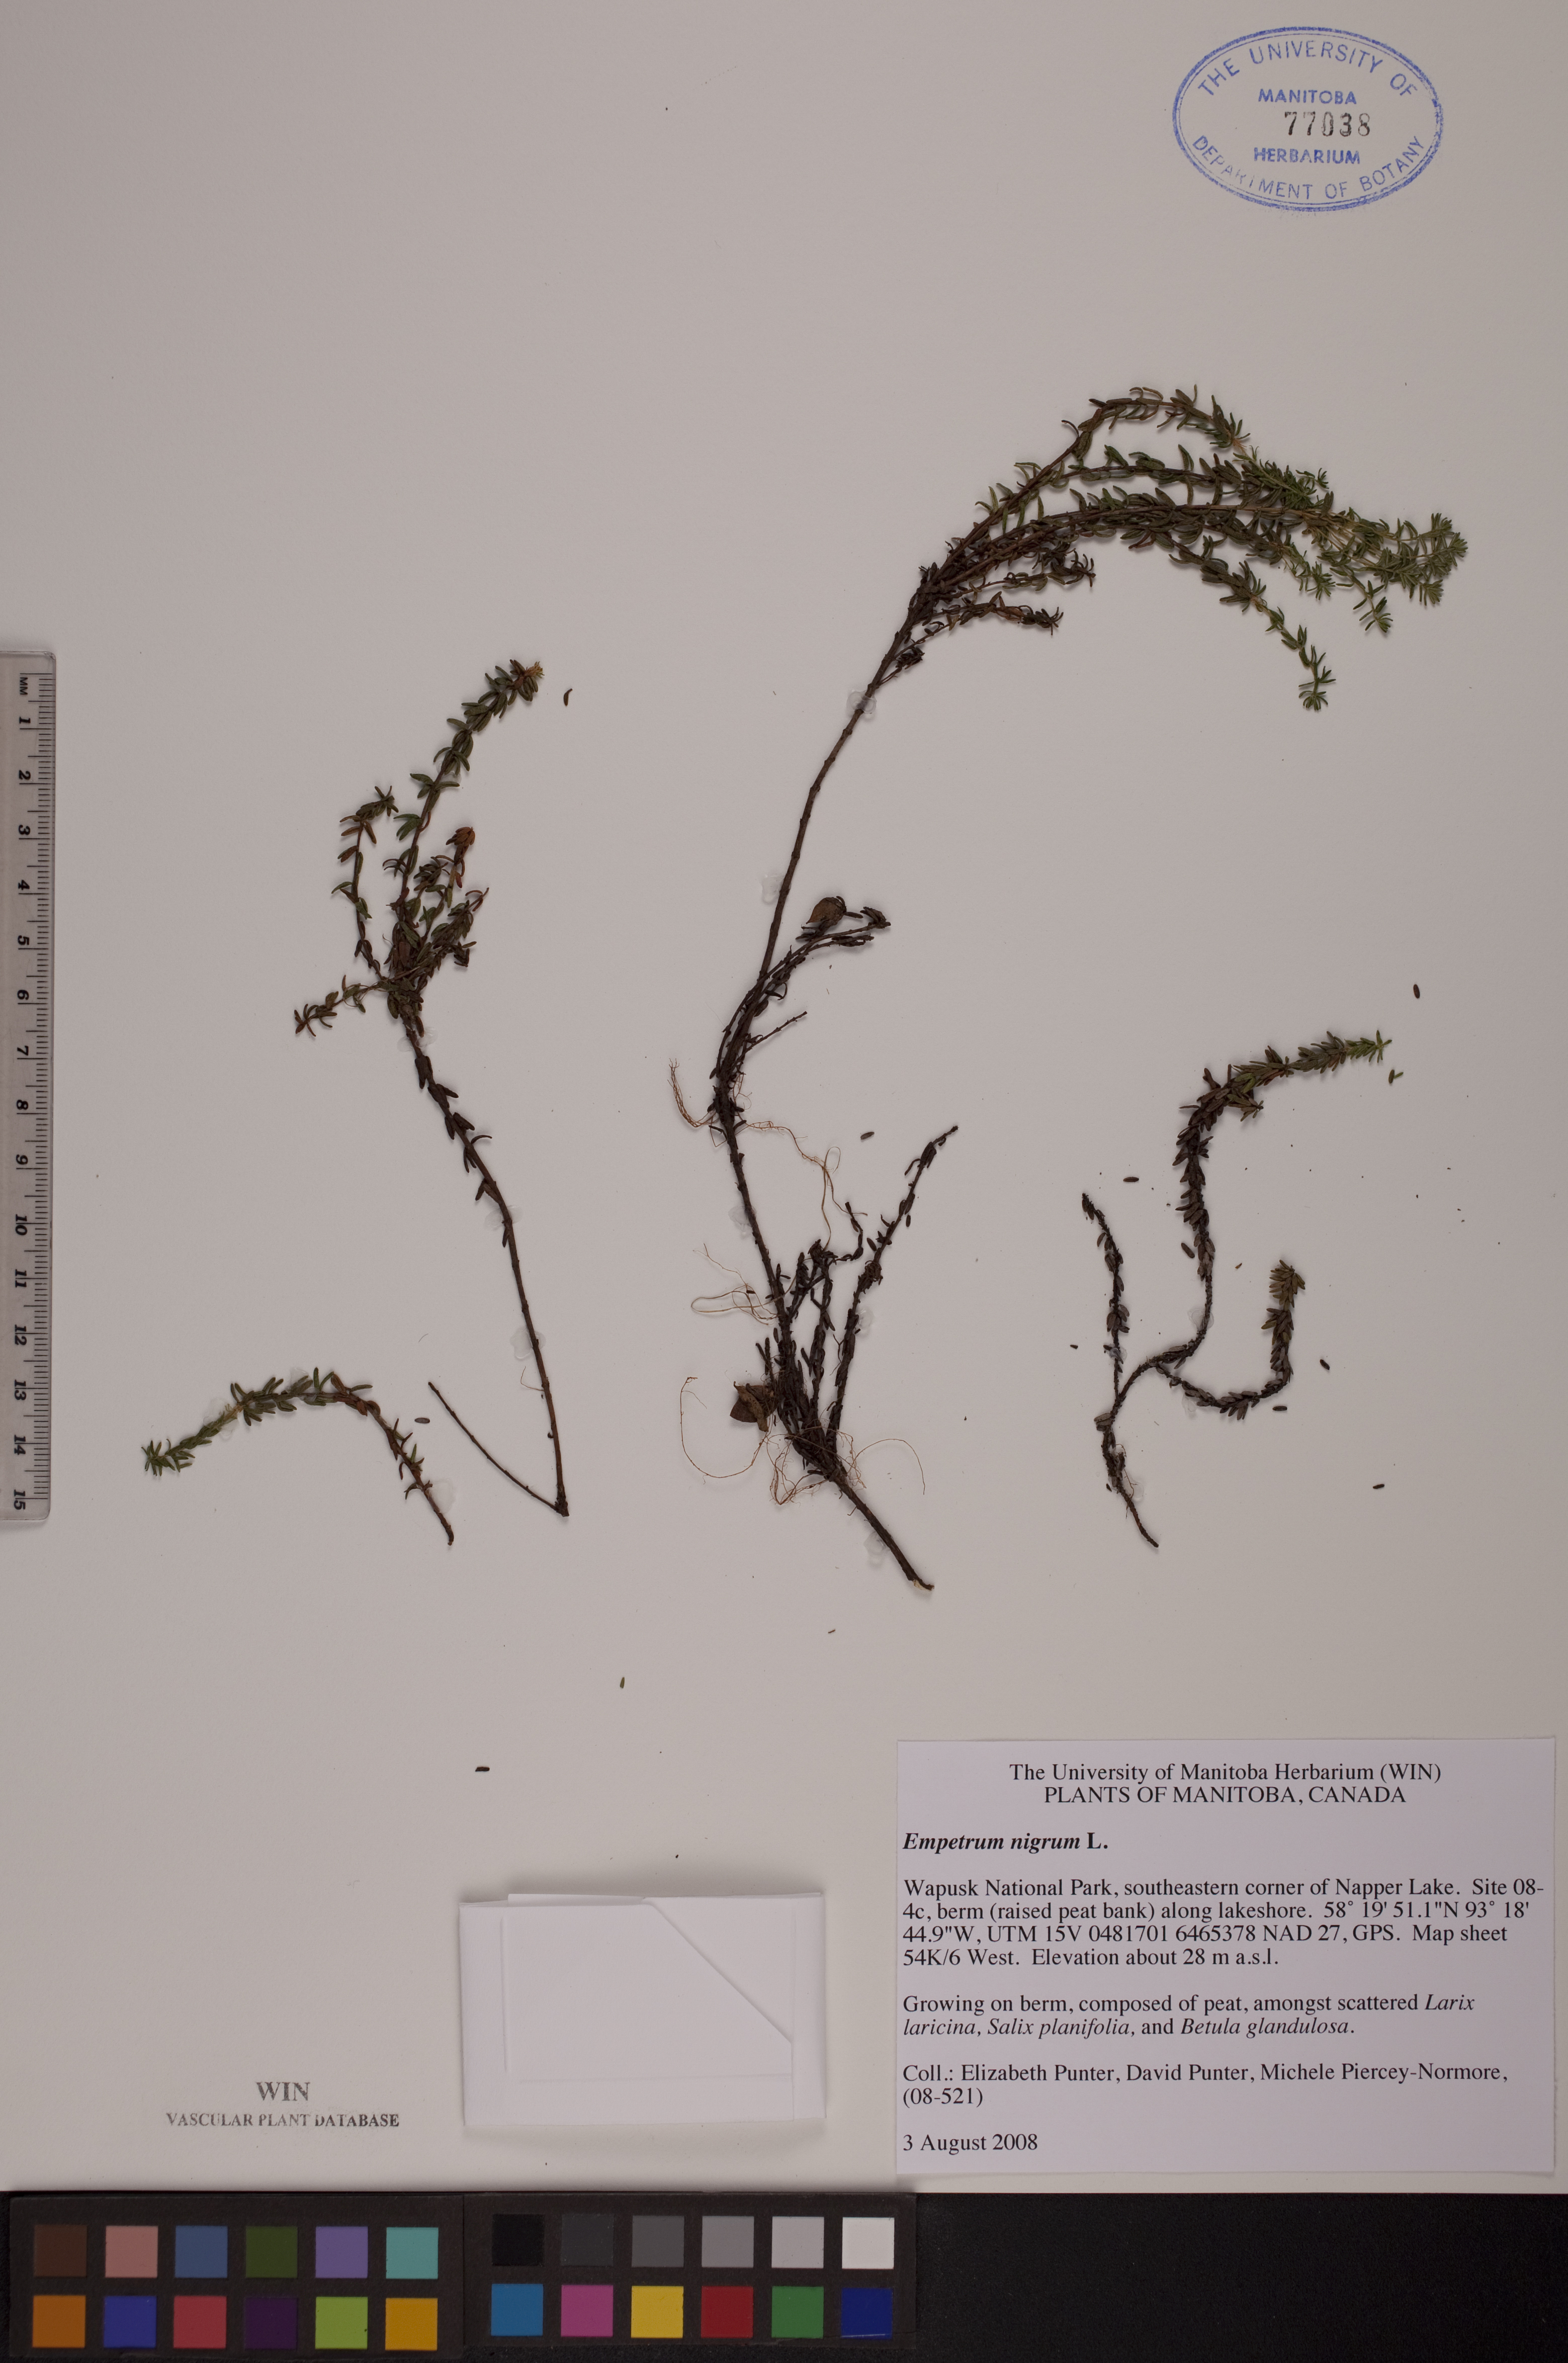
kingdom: Plantae
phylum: Tracheophyta
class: Magnoliopsida
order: Ericales
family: Ericaceae
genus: Empetrum
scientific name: Empetrum nigrum
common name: Black crowberry
